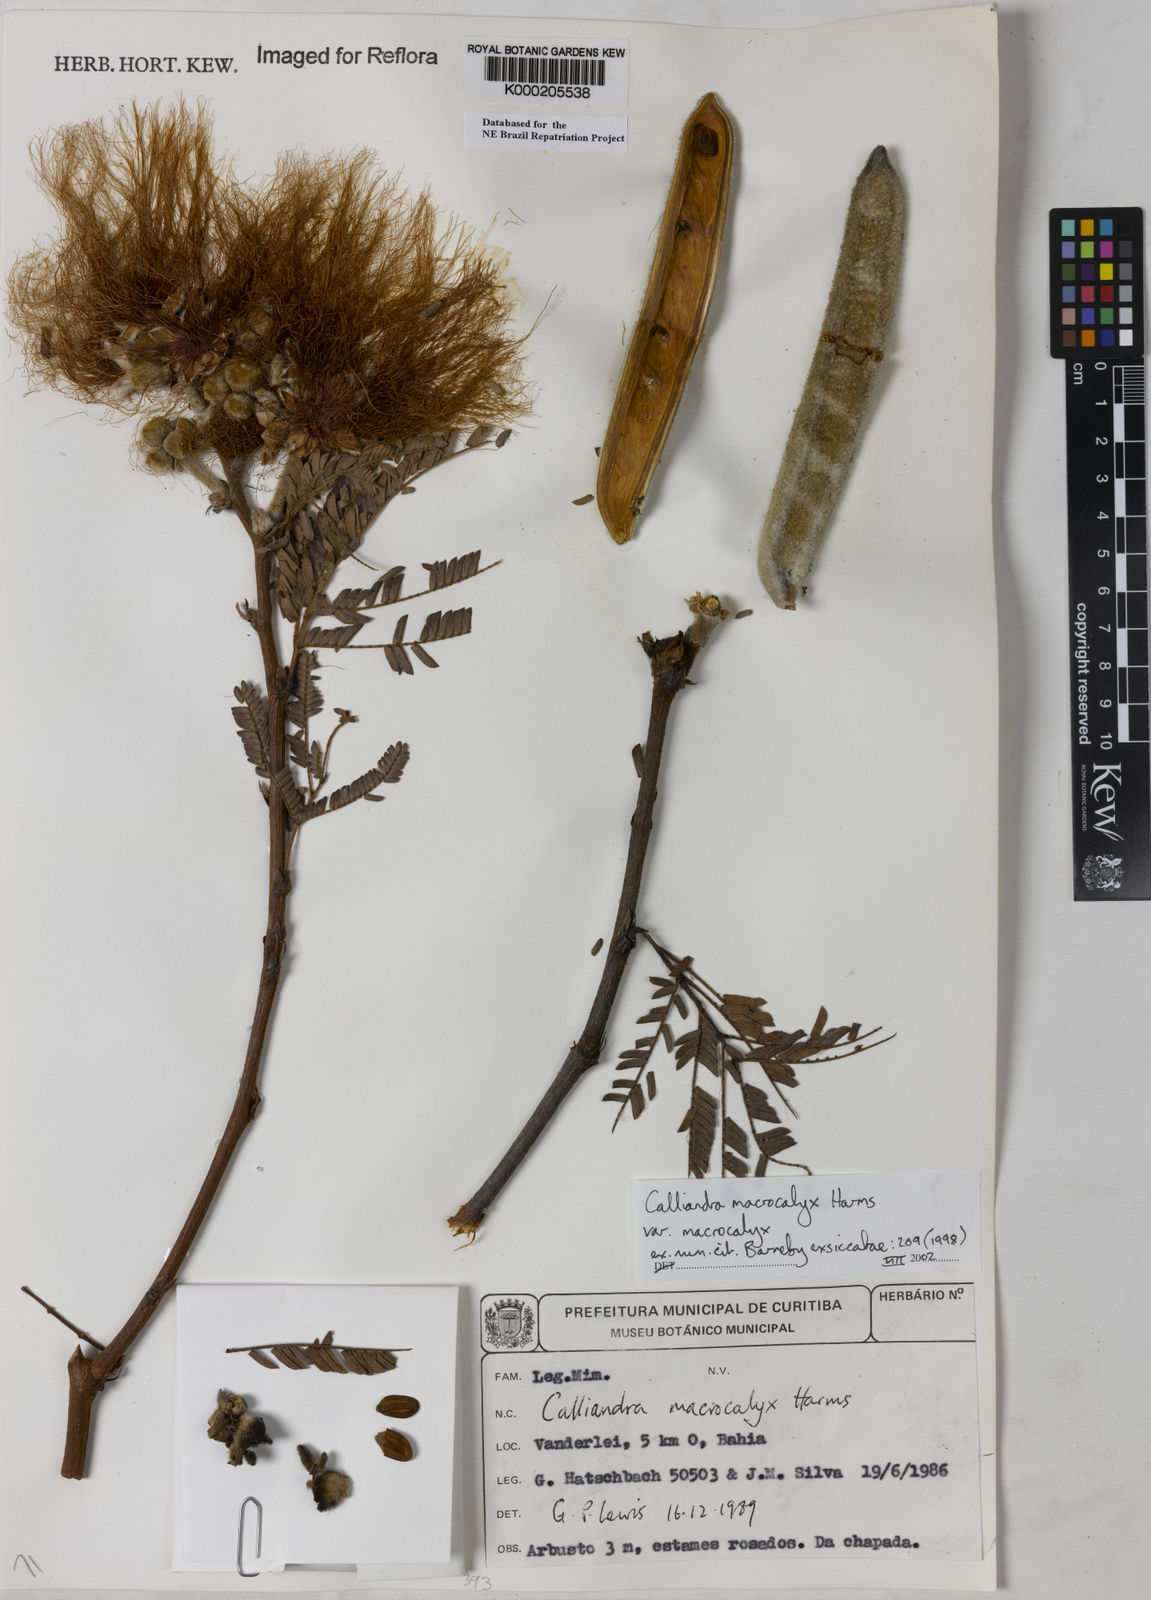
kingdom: Plantae
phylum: Tracheophyta
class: Magnoliopsida
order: Fabales
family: Fabaceae
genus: Calliandra
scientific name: Calliandra macrocalyx
